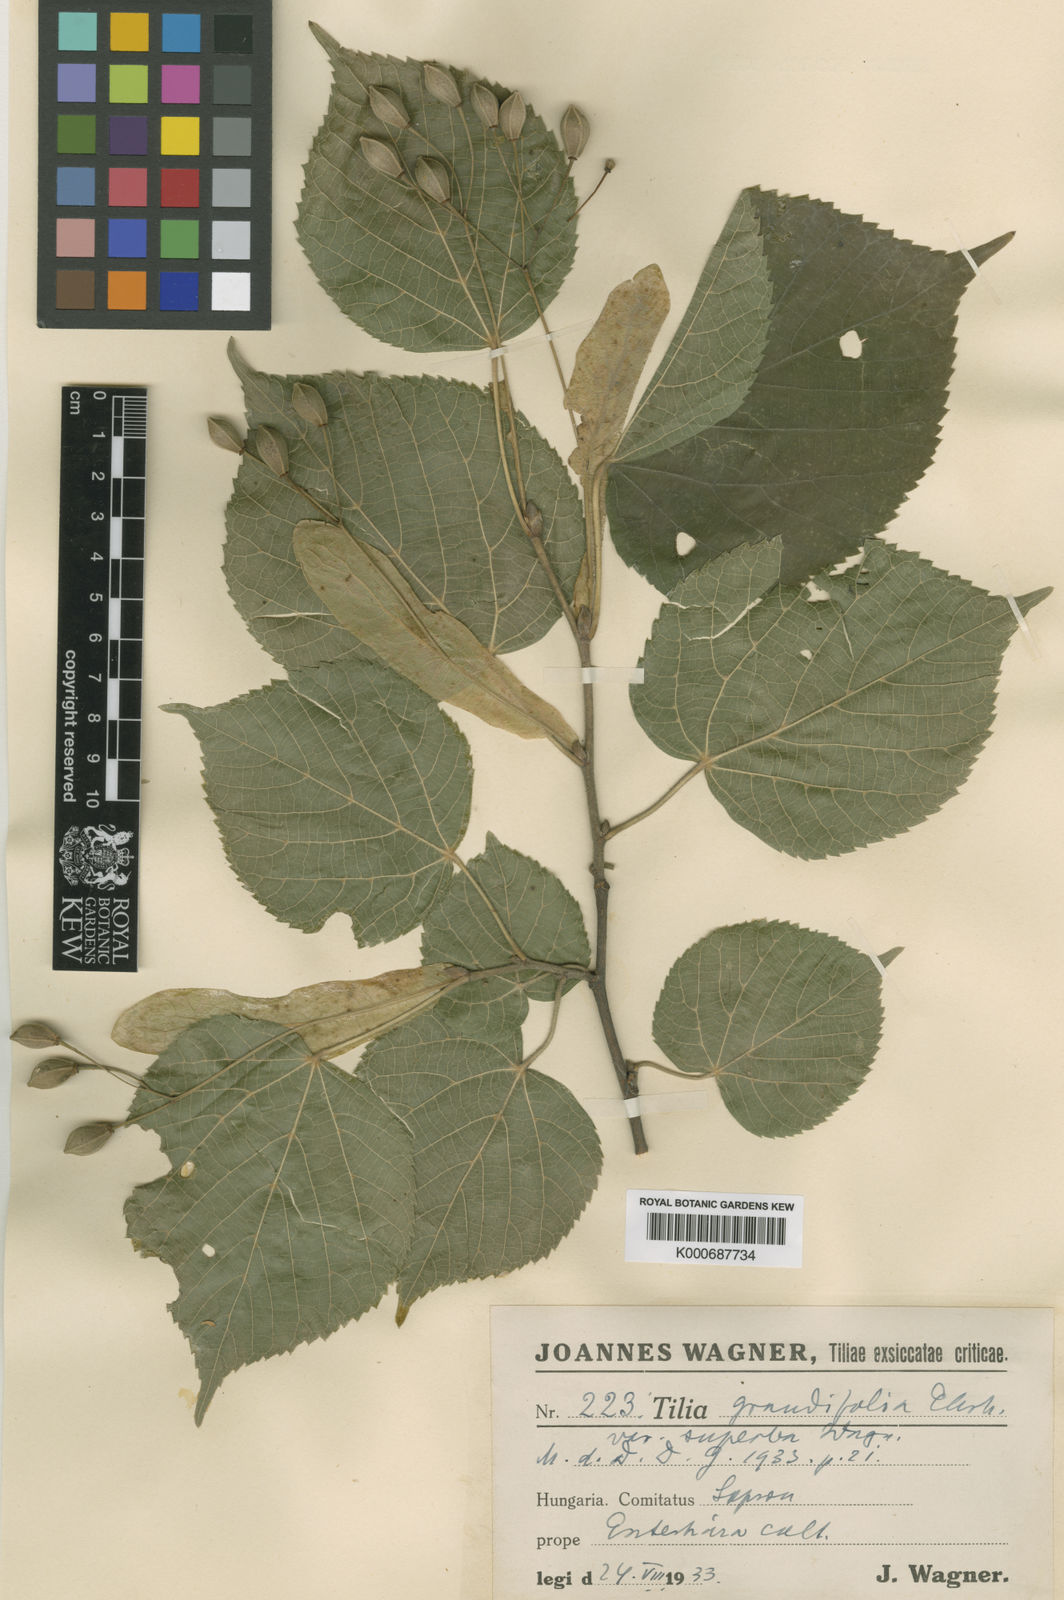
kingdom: Plantae
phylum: Tracheophyta
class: Magnoliopsida
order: Malvales
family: Malvaceae
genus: Tilia
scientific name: Tilia platyphyllos
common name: Large-leaved lime
